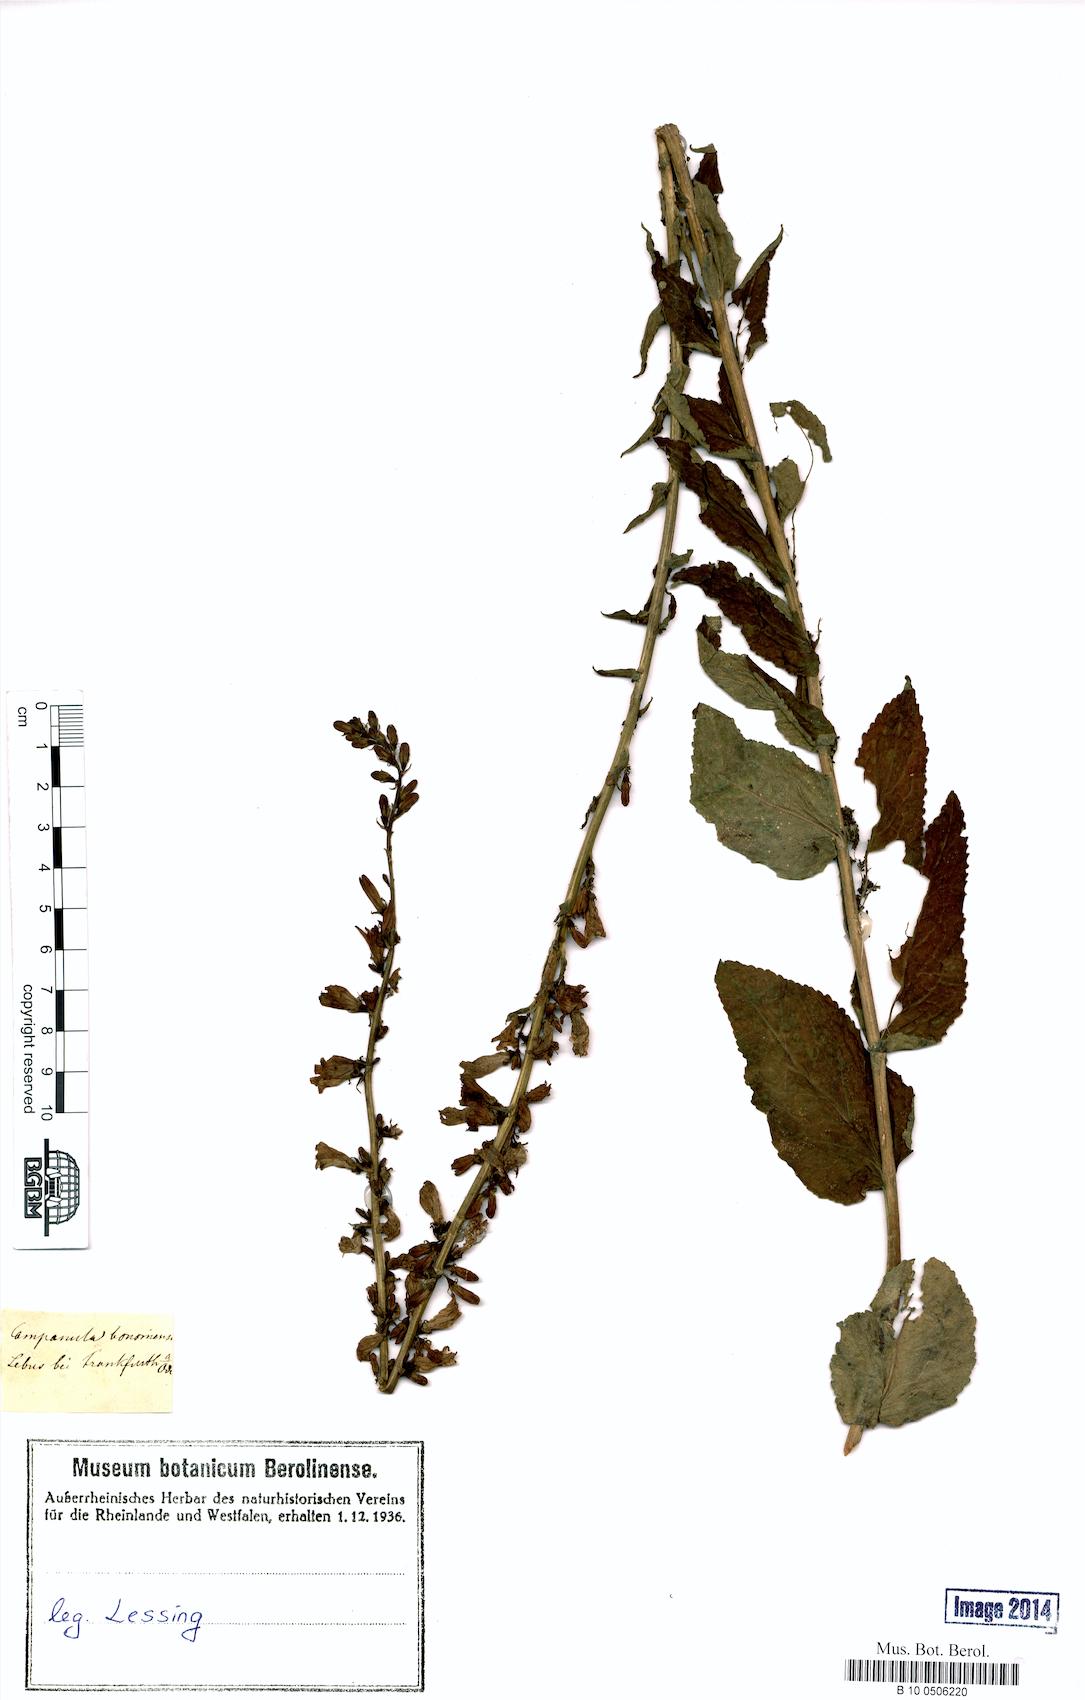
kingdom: Plantae
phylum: Tracheophyta
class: Magnoliopsida
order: Asterales
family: Campanulaceae
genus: Campanula
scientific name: Campanula bononiensis
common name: Pale bellflower
